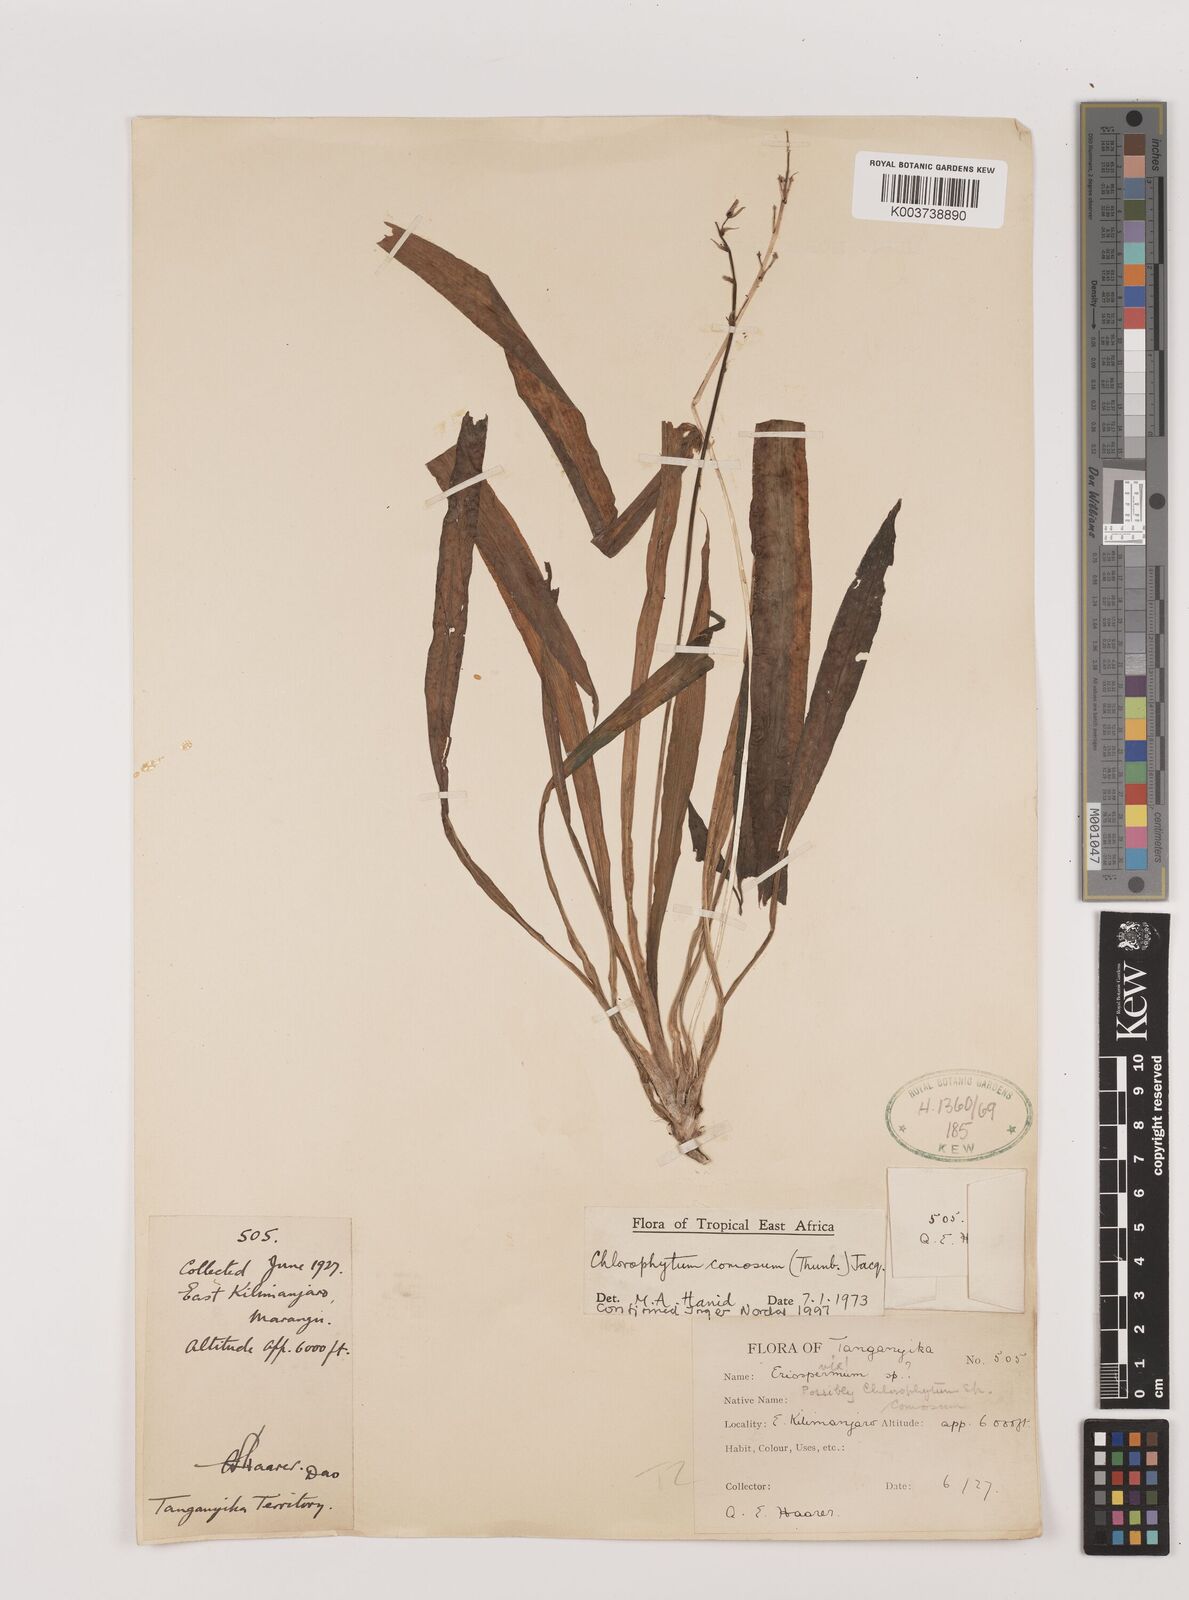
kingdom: Plantae
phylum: Tracheophyta
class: Liliopsida
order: Asparagales
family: Asparagaceae
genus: Chlorophytum
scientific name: Chlorophytum comosum
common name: Spider plant
